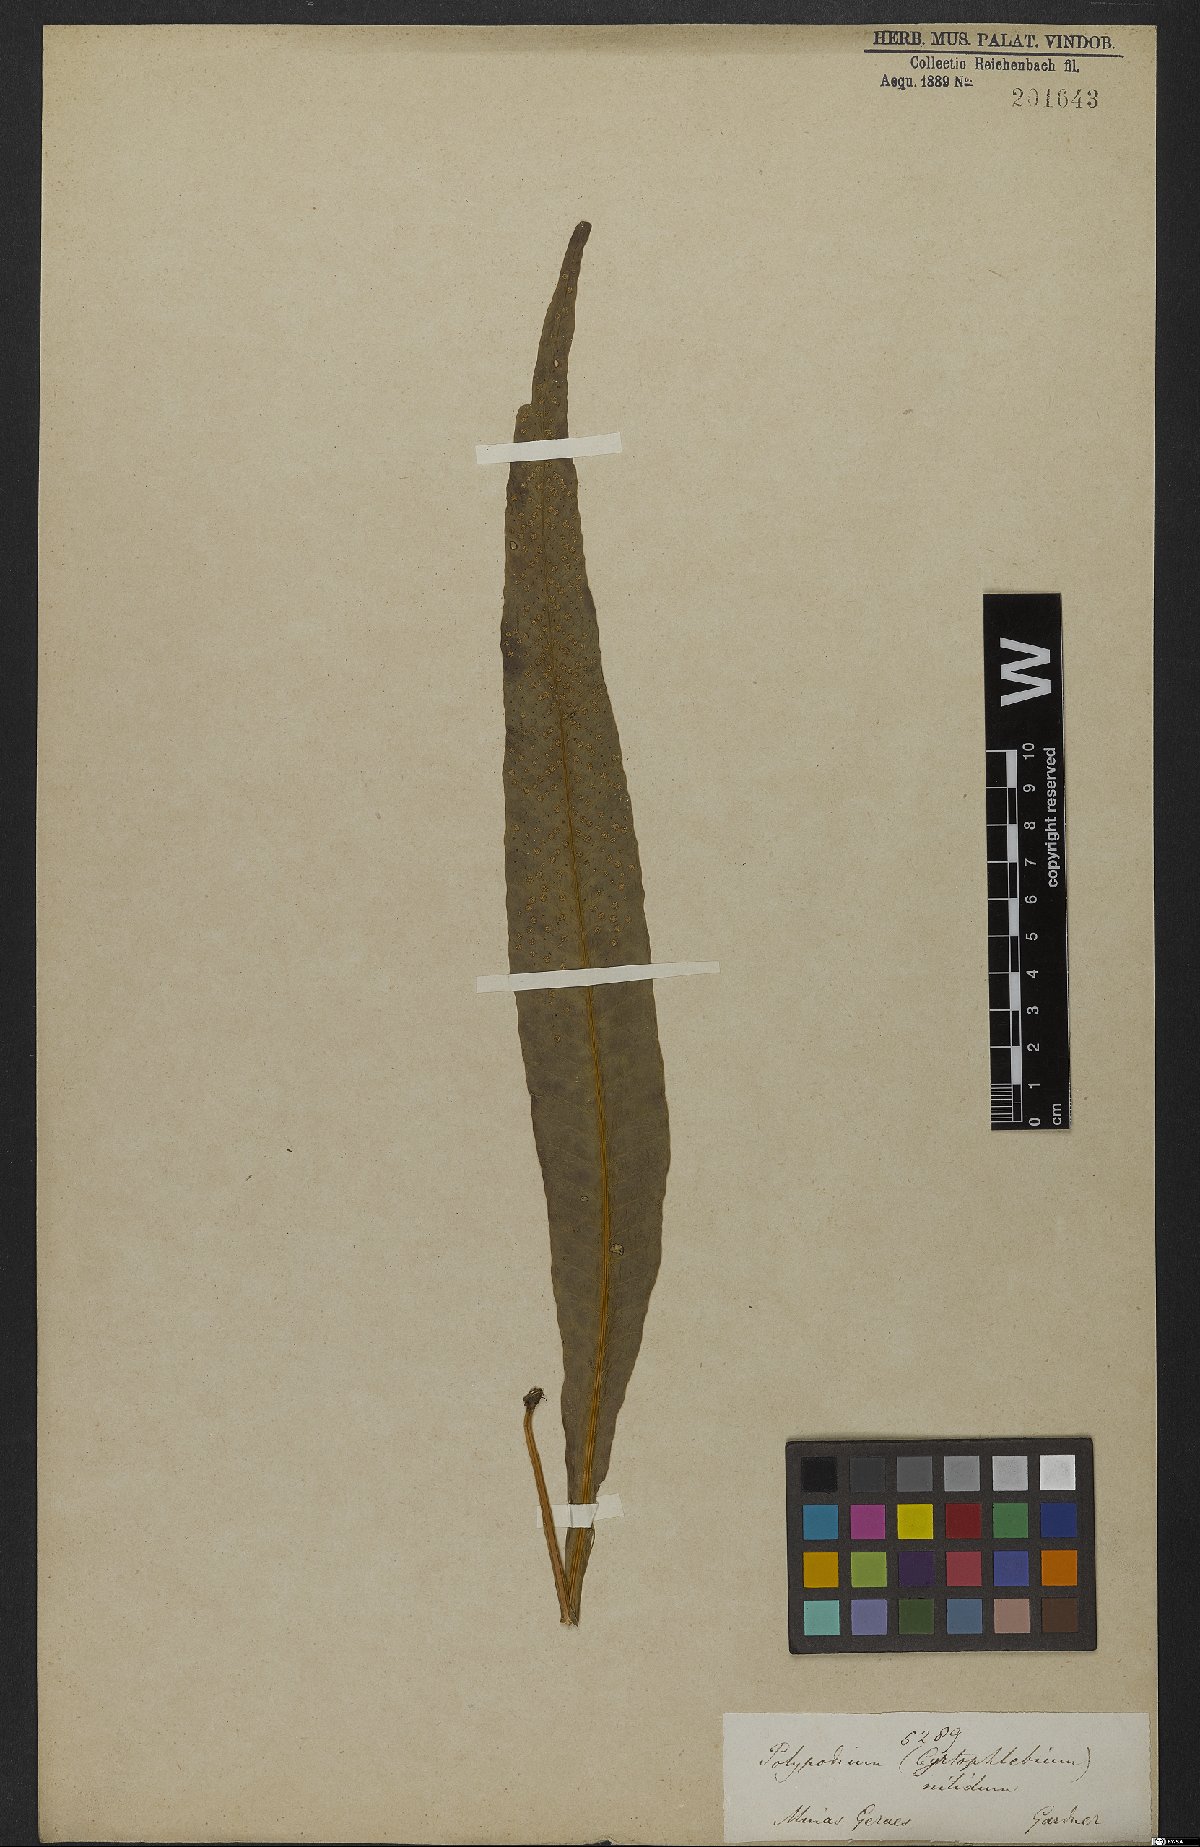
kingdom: Plantae
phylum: Tracheophyta
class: Polypodiopsida
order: Polypodiales
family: Polypodiaceae
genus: Campyloneurum
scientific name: Campyloneurum nitidum
